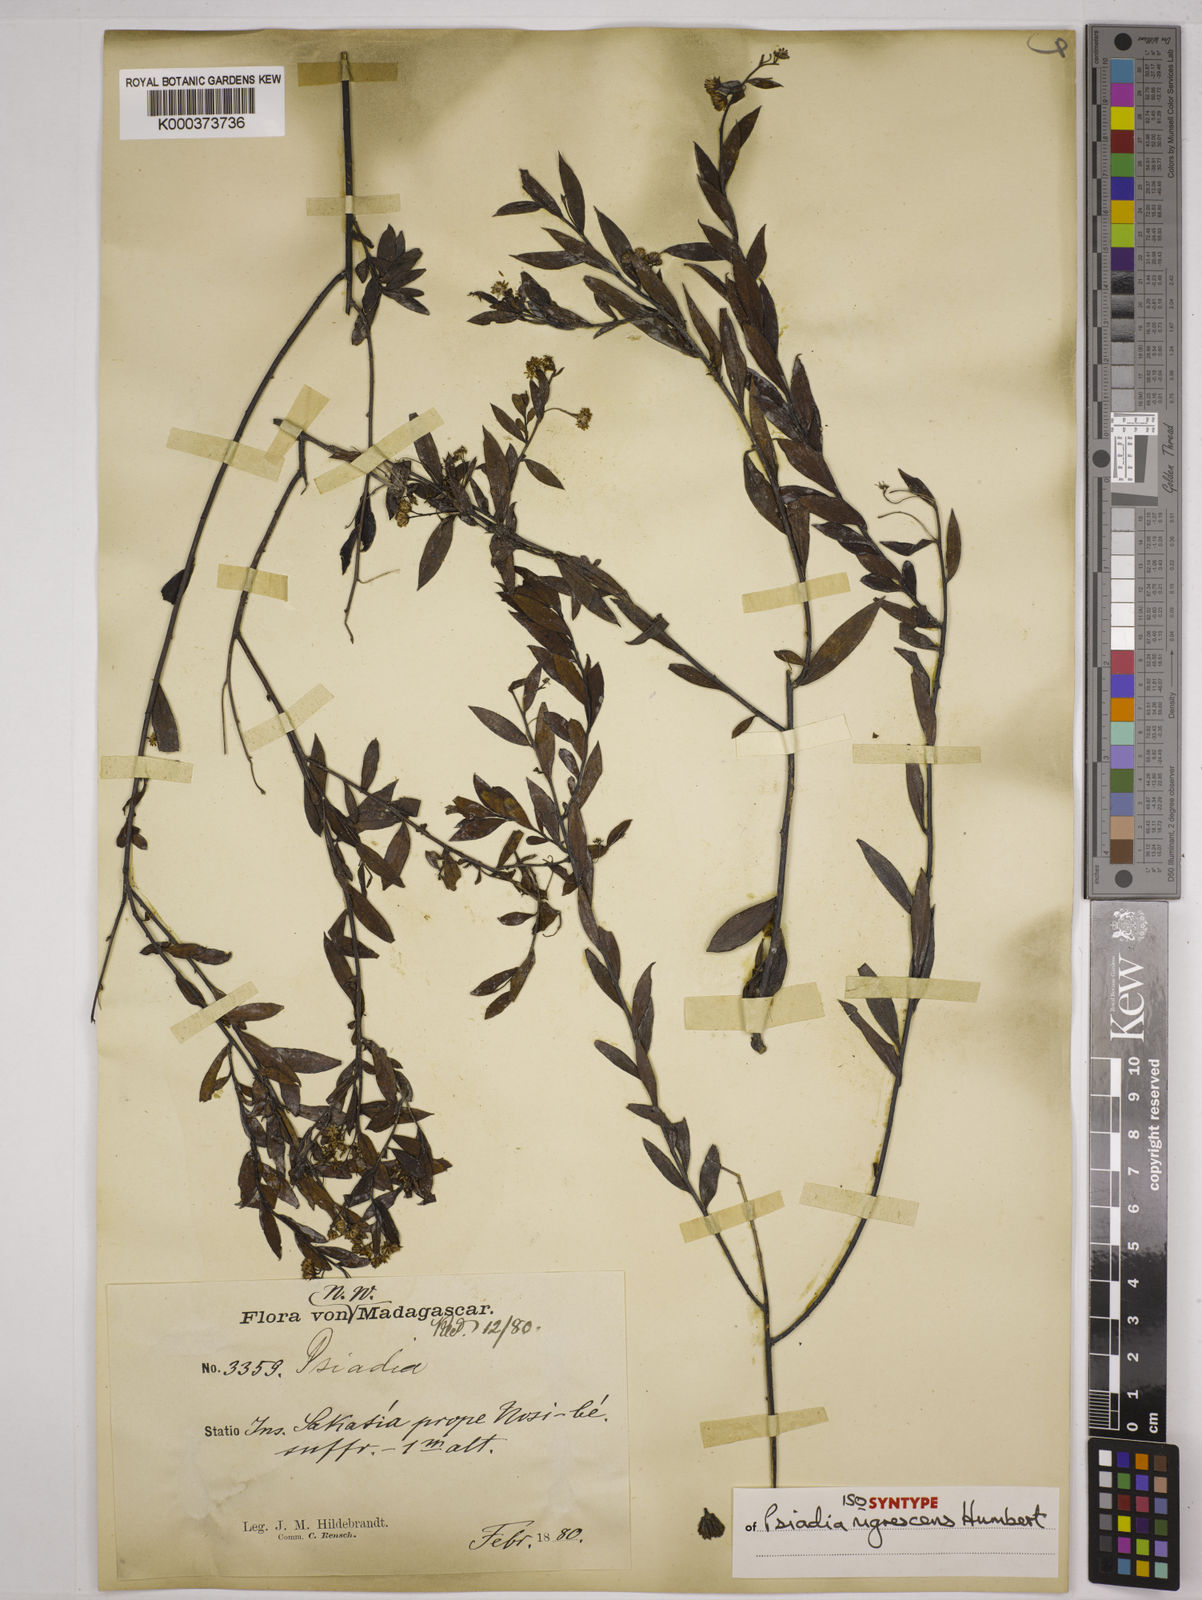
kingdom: Plantae
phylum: Tracheophyta
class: Magnoliopsida
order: Asterales
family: Asteraceae
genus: Psiadia
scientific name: Psiadia nigrescens
